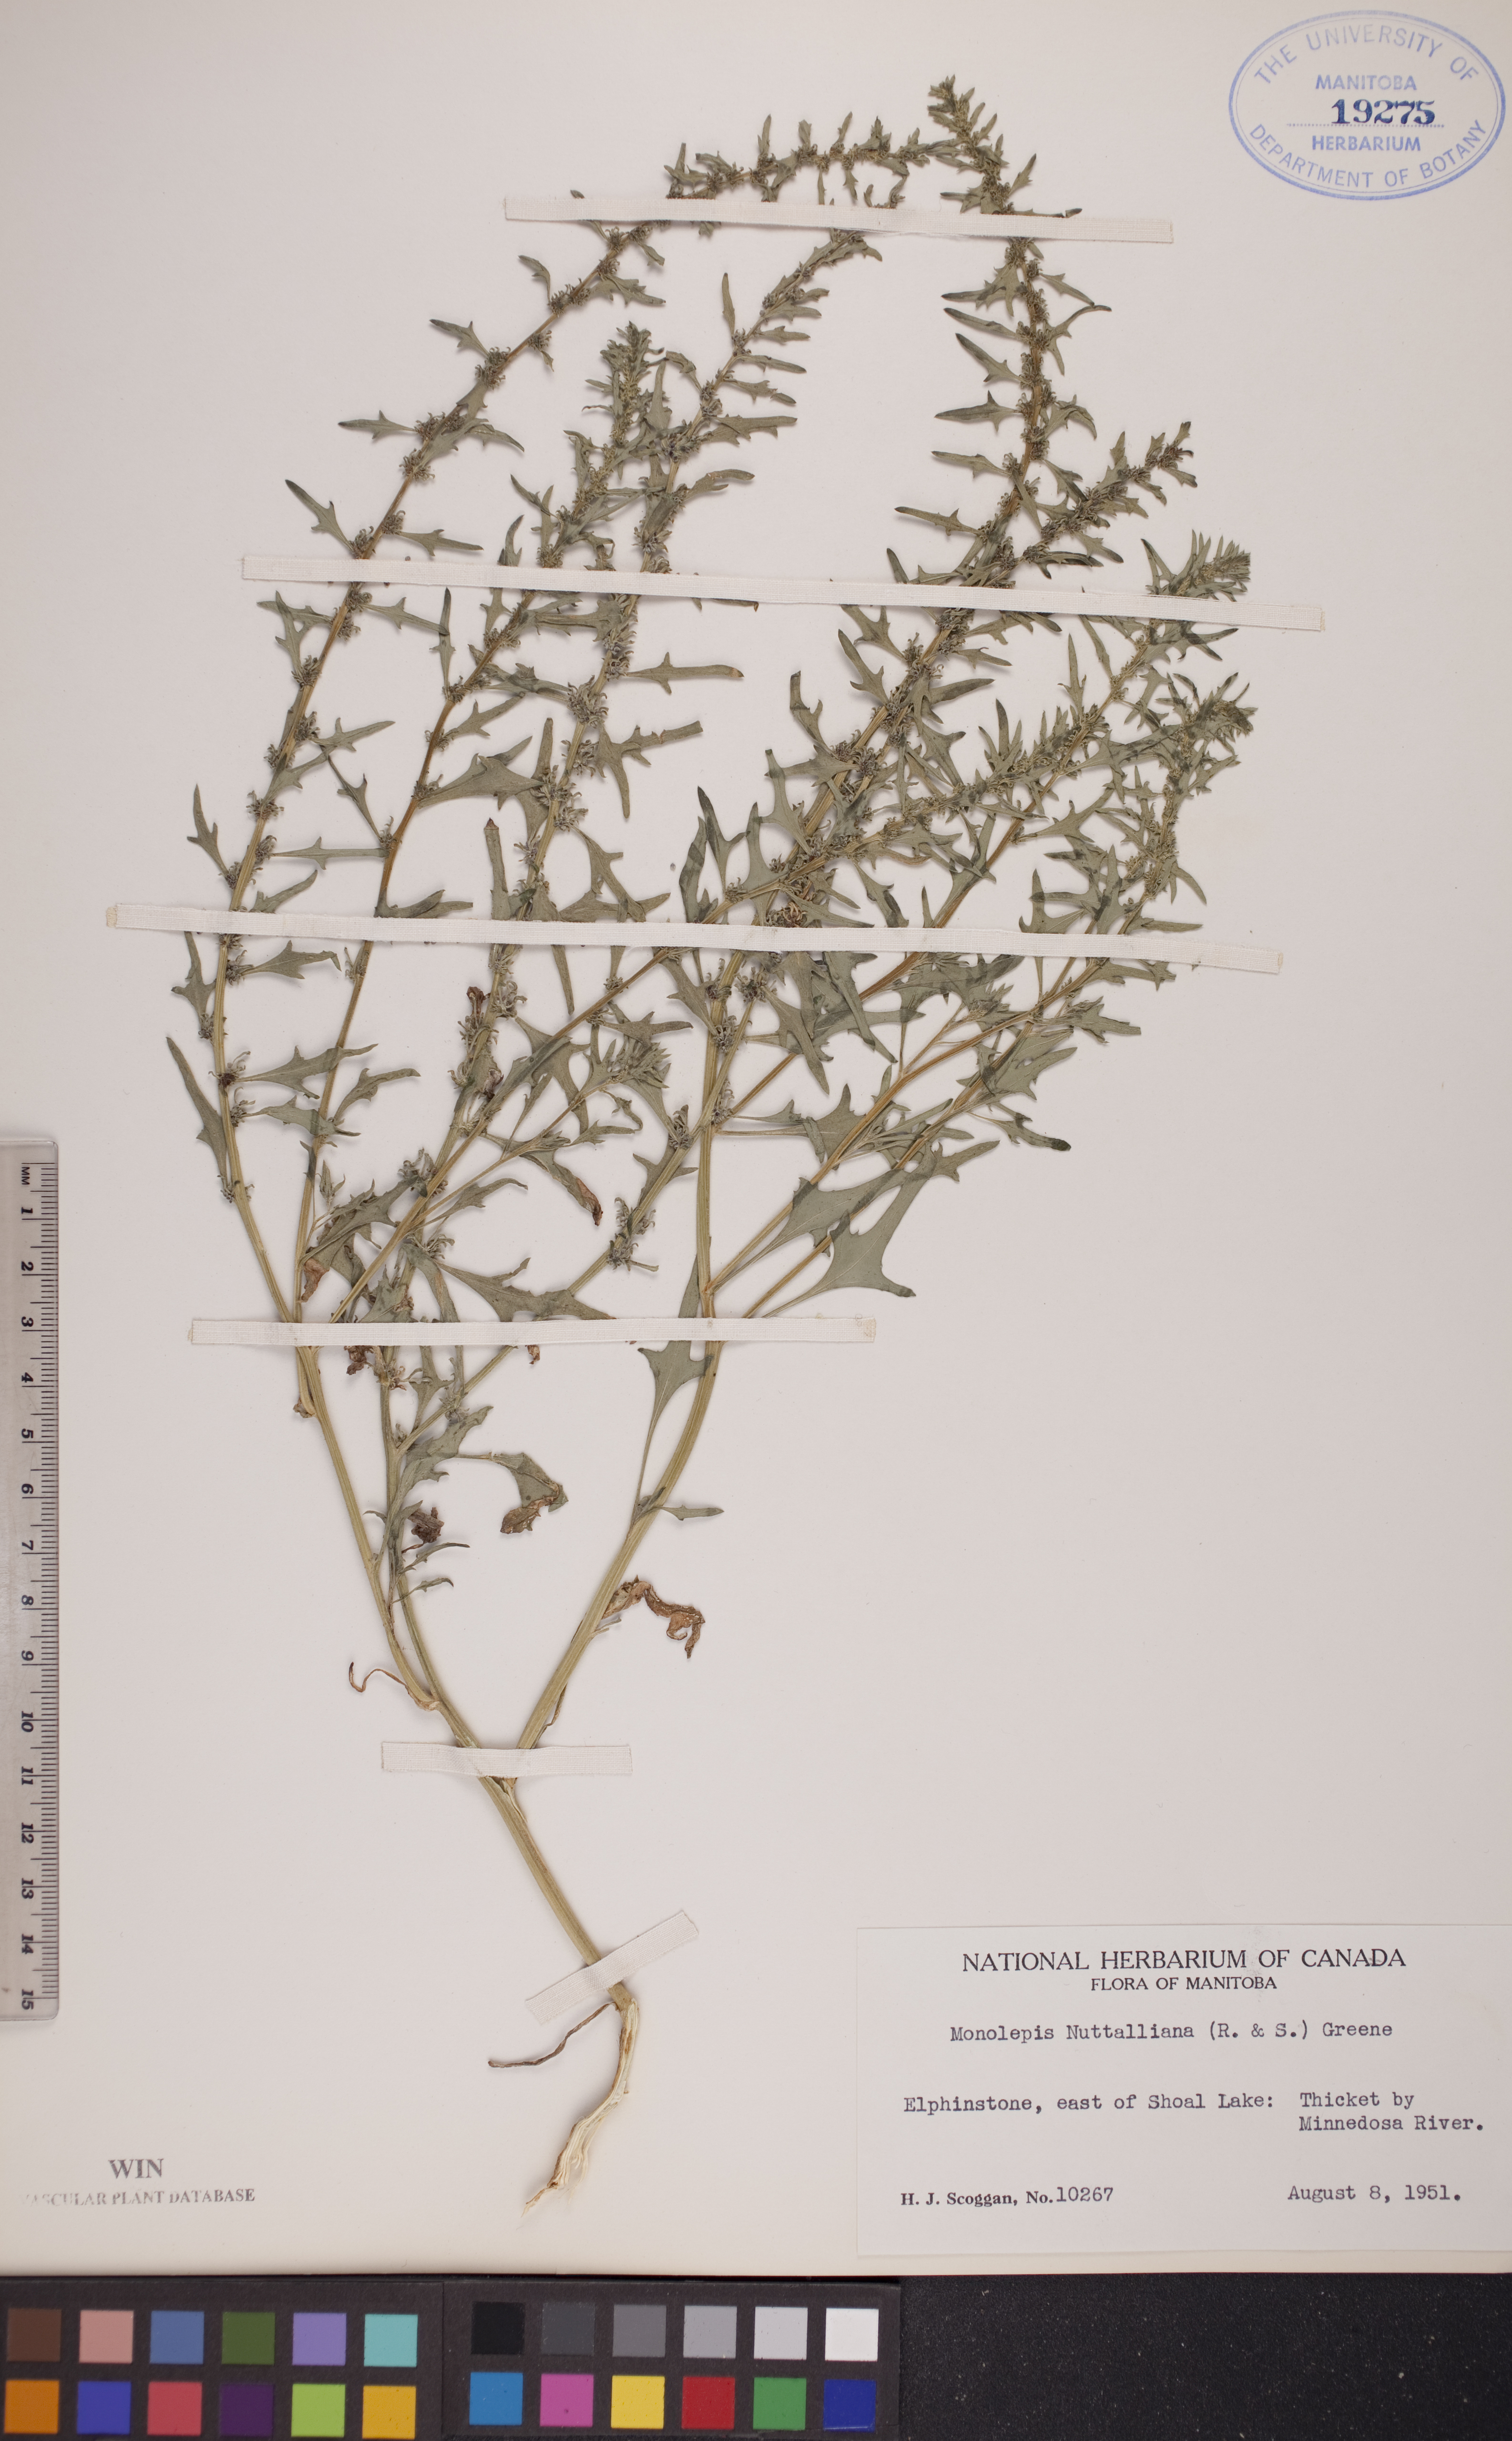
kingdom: Plantae
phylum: Tracheophyta
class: Magnoliopsida
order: Caryophyllales
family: Amaranthaceae
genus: Blitum
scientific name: Blitum nuttallianum
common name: Poverty-weed
